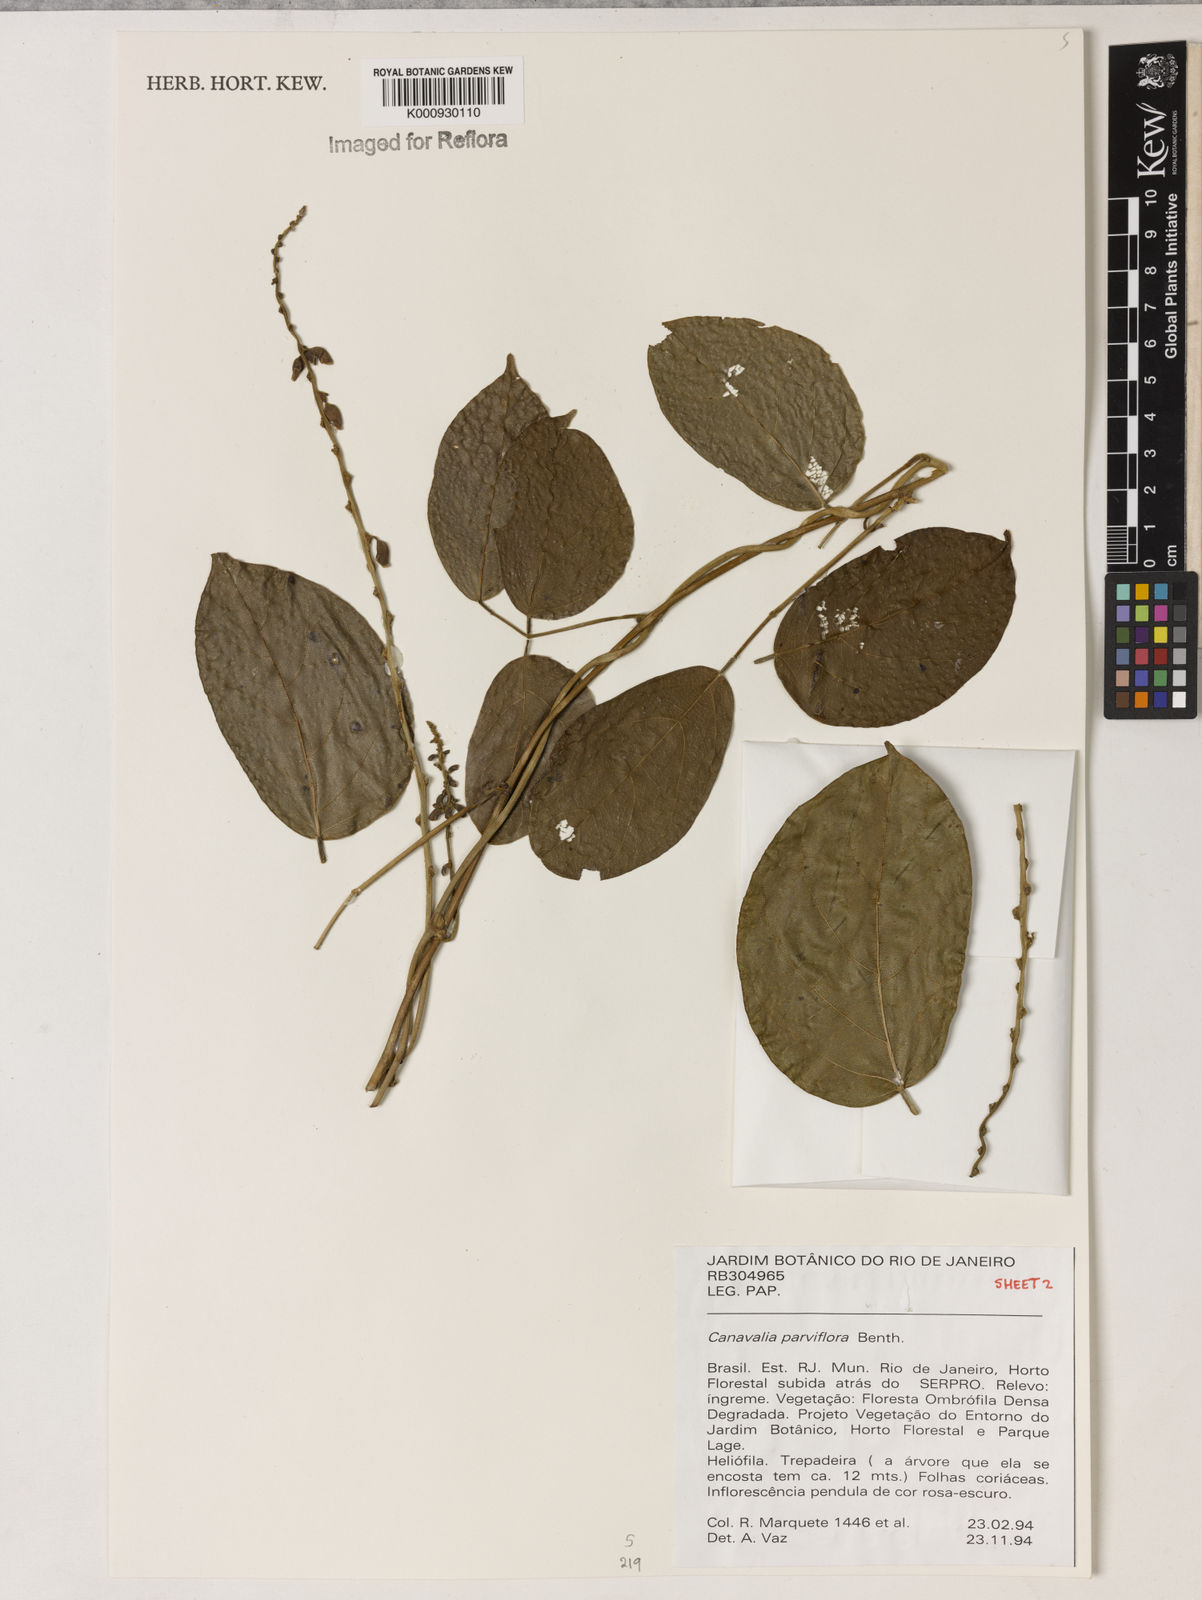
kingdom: Plantae
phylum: Tracheophyta
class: Magnoliopsida
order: Fabales
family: Fabaceae
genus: Canavalia
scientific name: Canavalia parviflora
